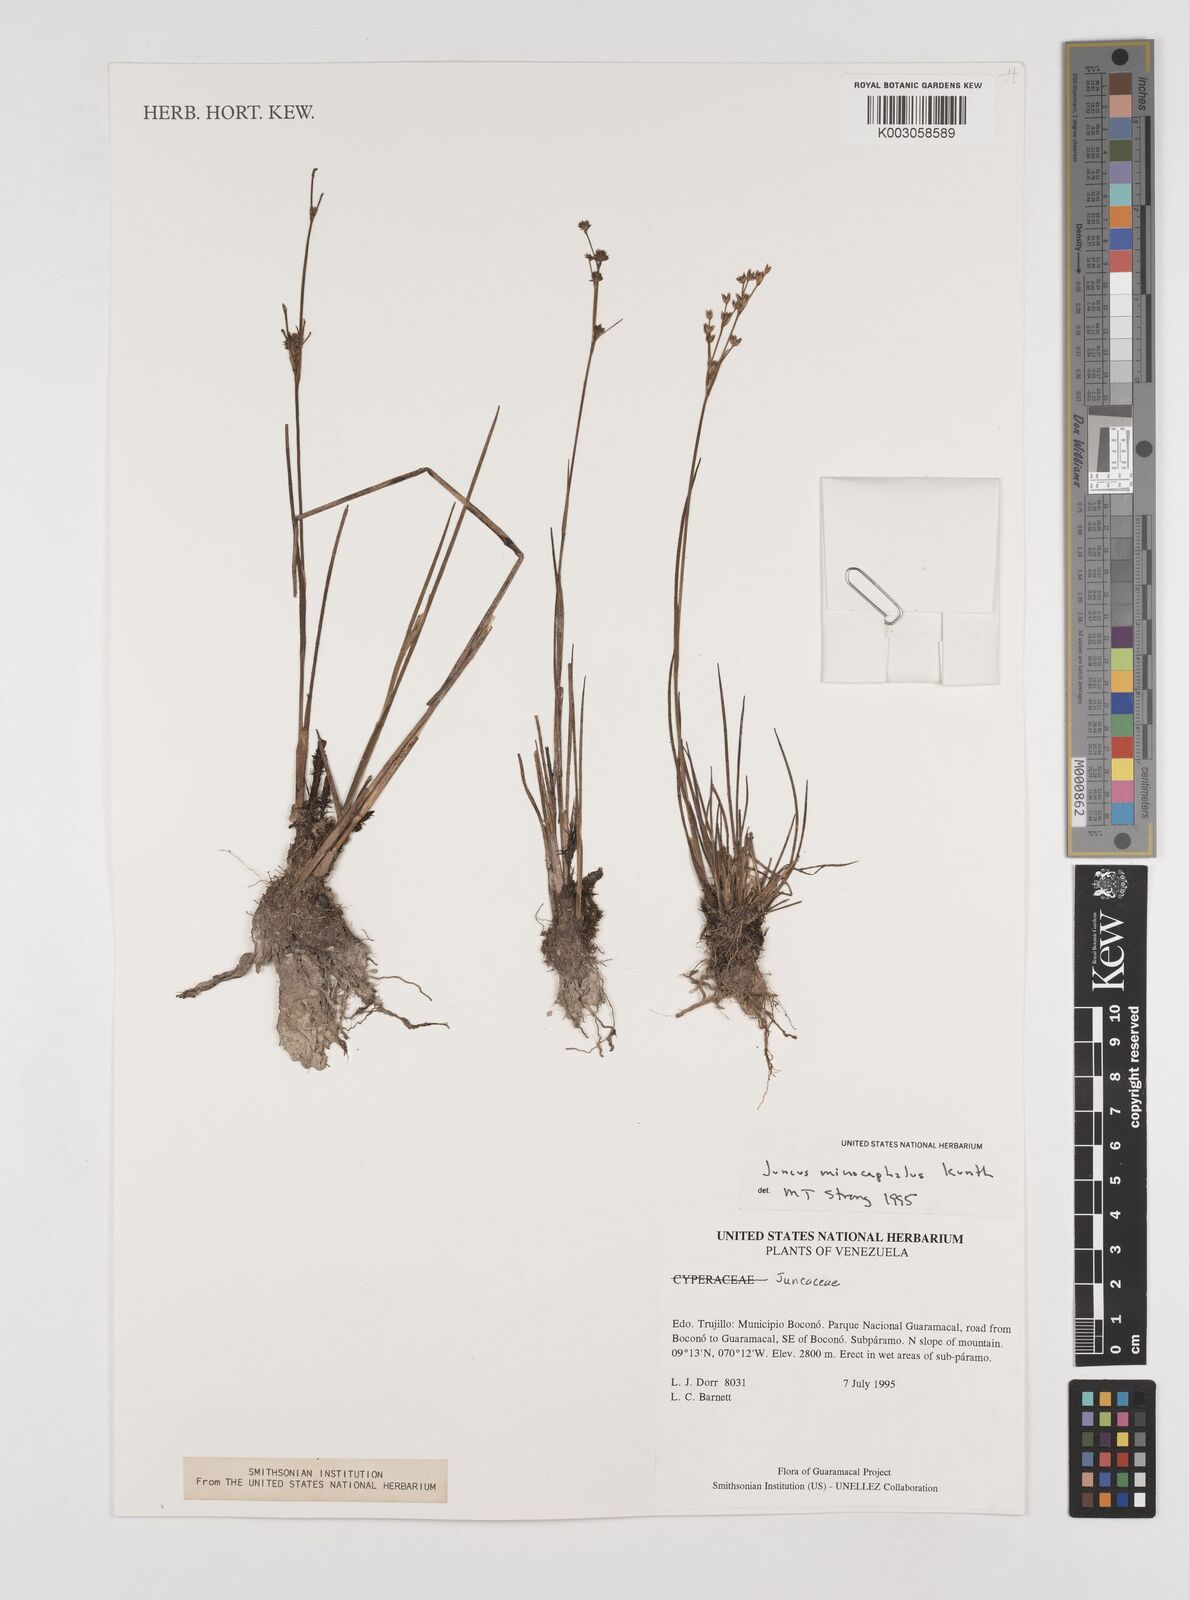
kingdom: Plantae
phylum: Tracheophyta
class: Liliopsida
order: Poales
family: Juncaceae
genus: Juncus
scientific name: Juncus
